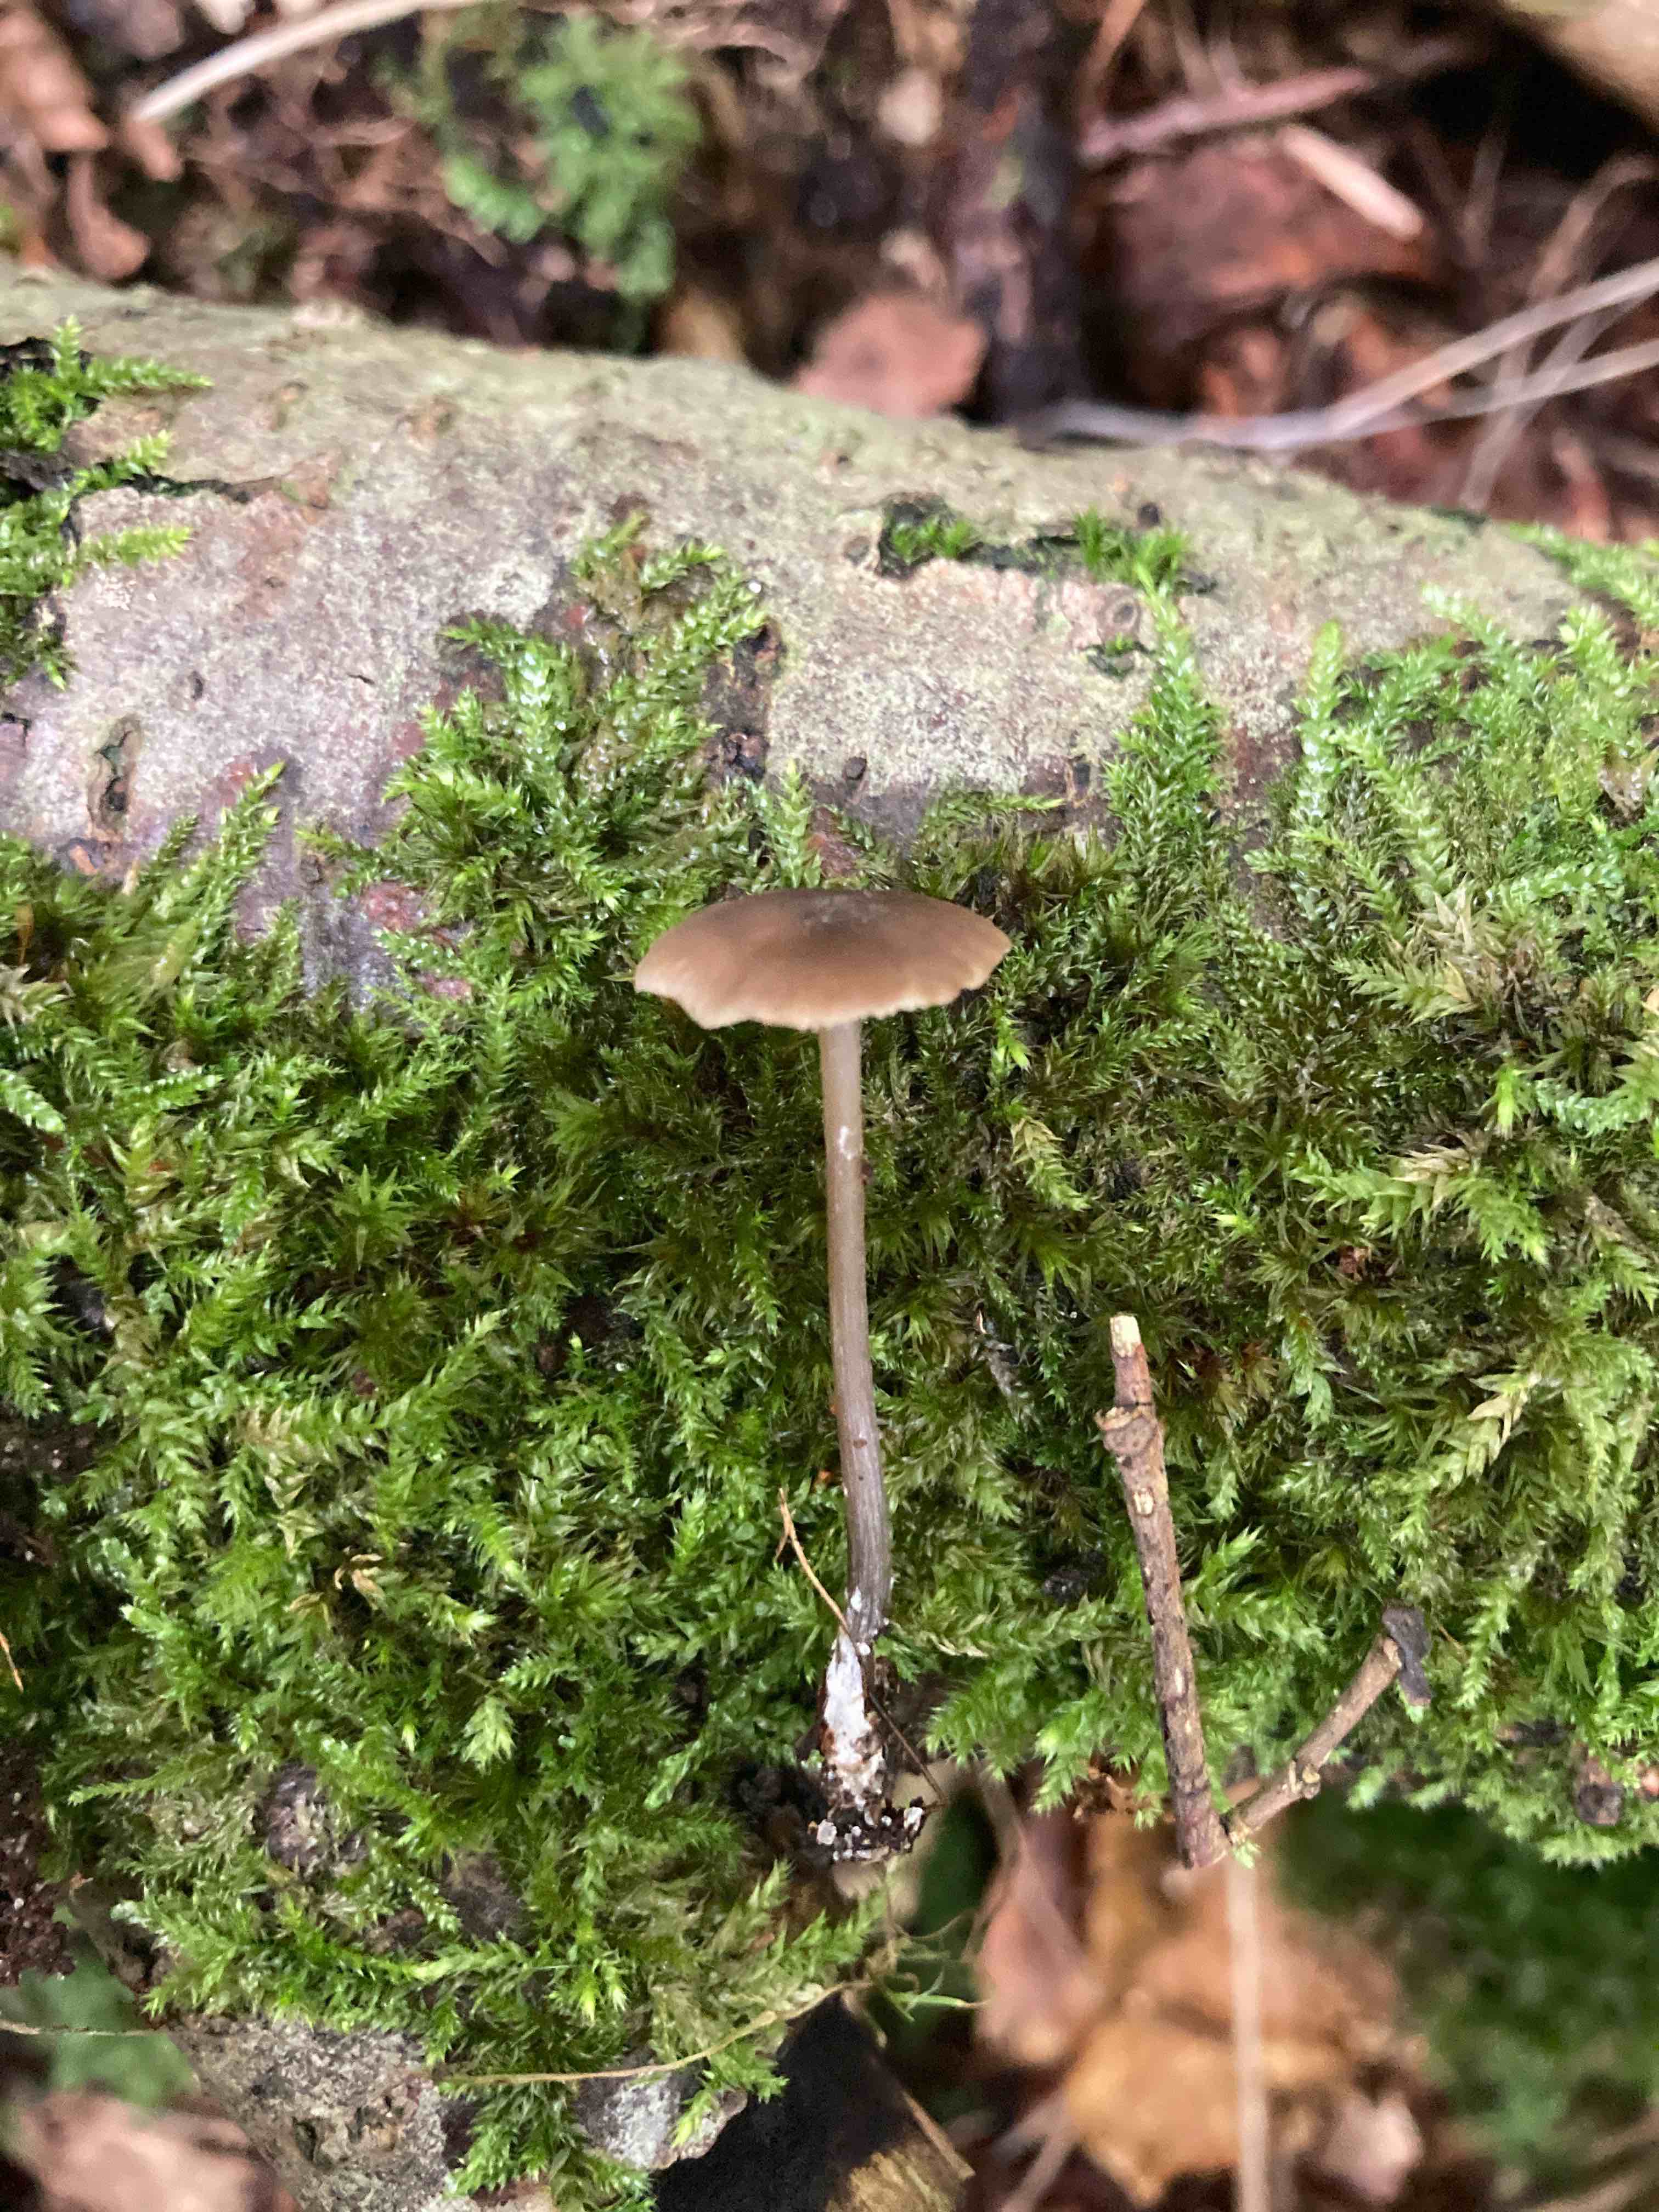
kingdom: Fungi
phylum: Basidiomycota
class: Agaricomycetes
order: Agaricales
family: Entolomataceae
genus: Entoloma
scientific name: Entoloma hebes
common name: krat-rødblad
